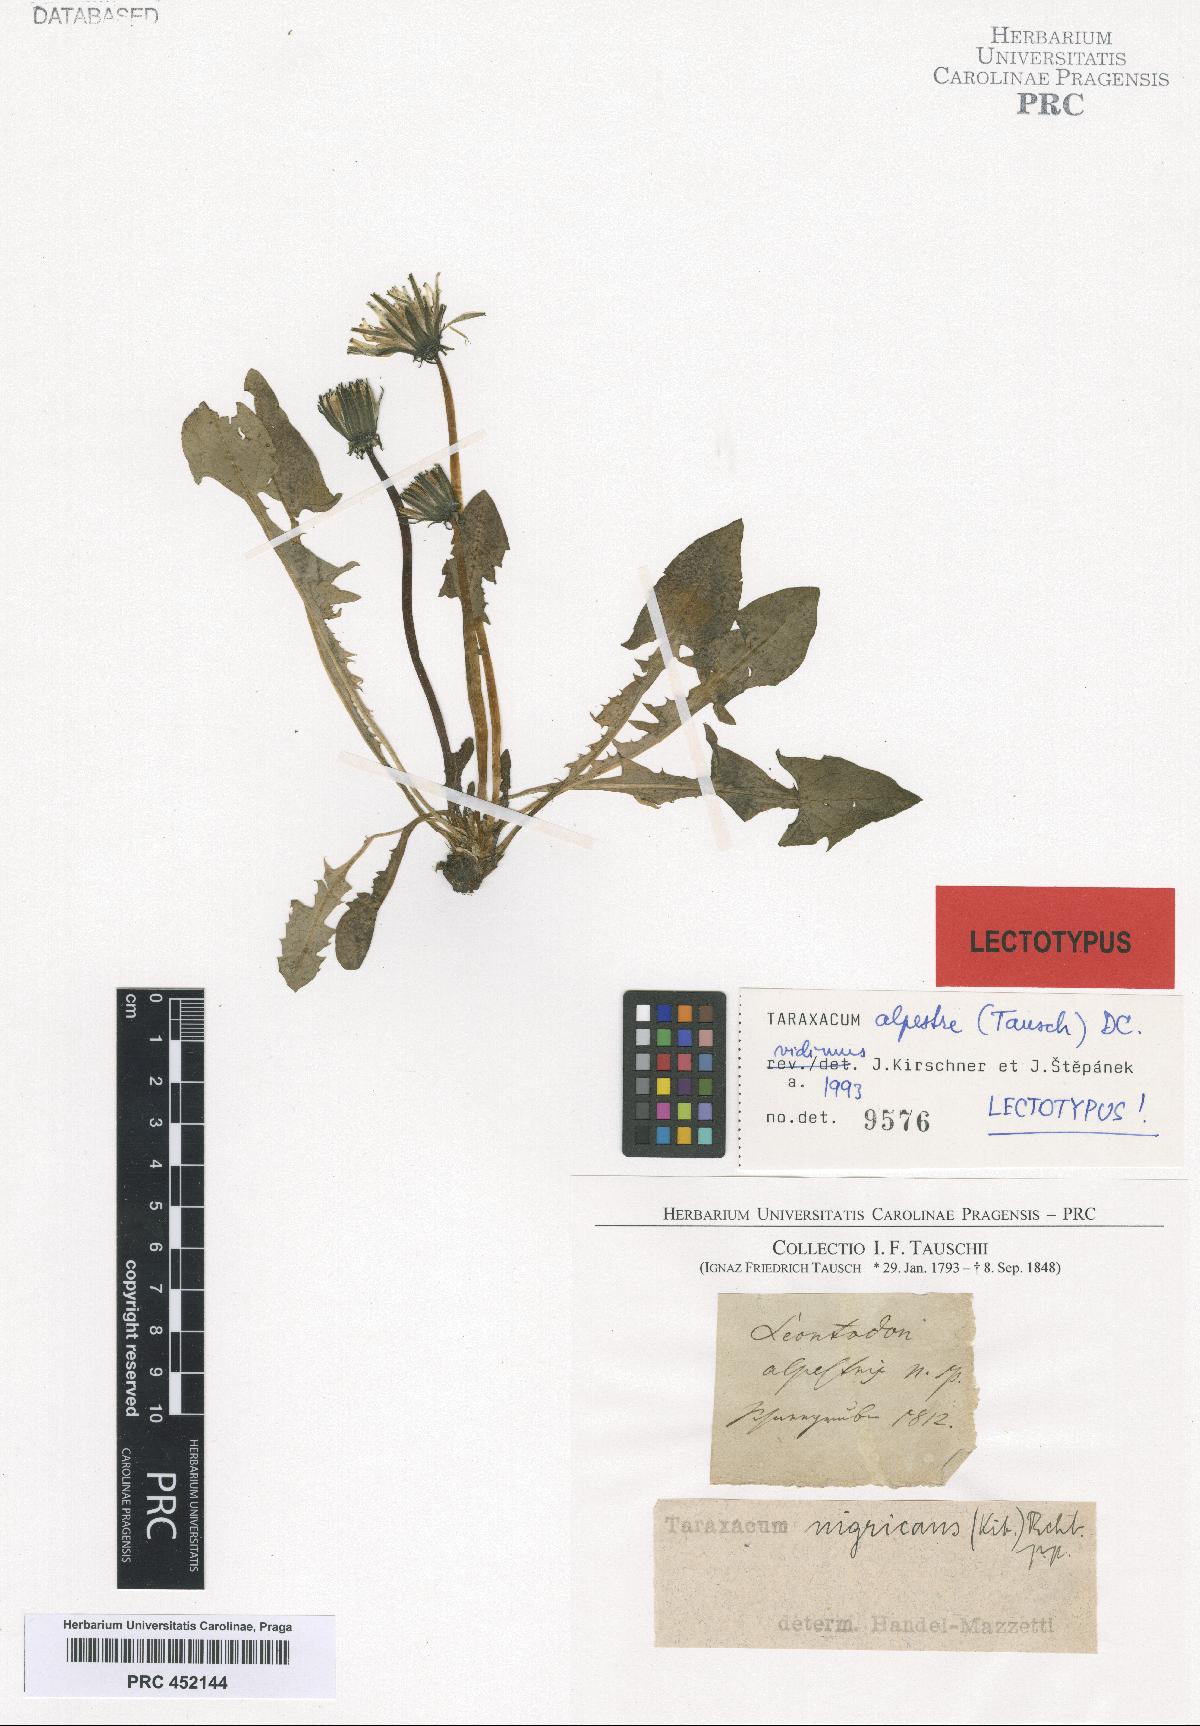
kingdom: Plantae
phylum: Tracheophyta
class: Magnoliopsida
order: Asterales
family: Asteraceae
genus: Taraxacum
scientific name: Taraxacum alpestre
